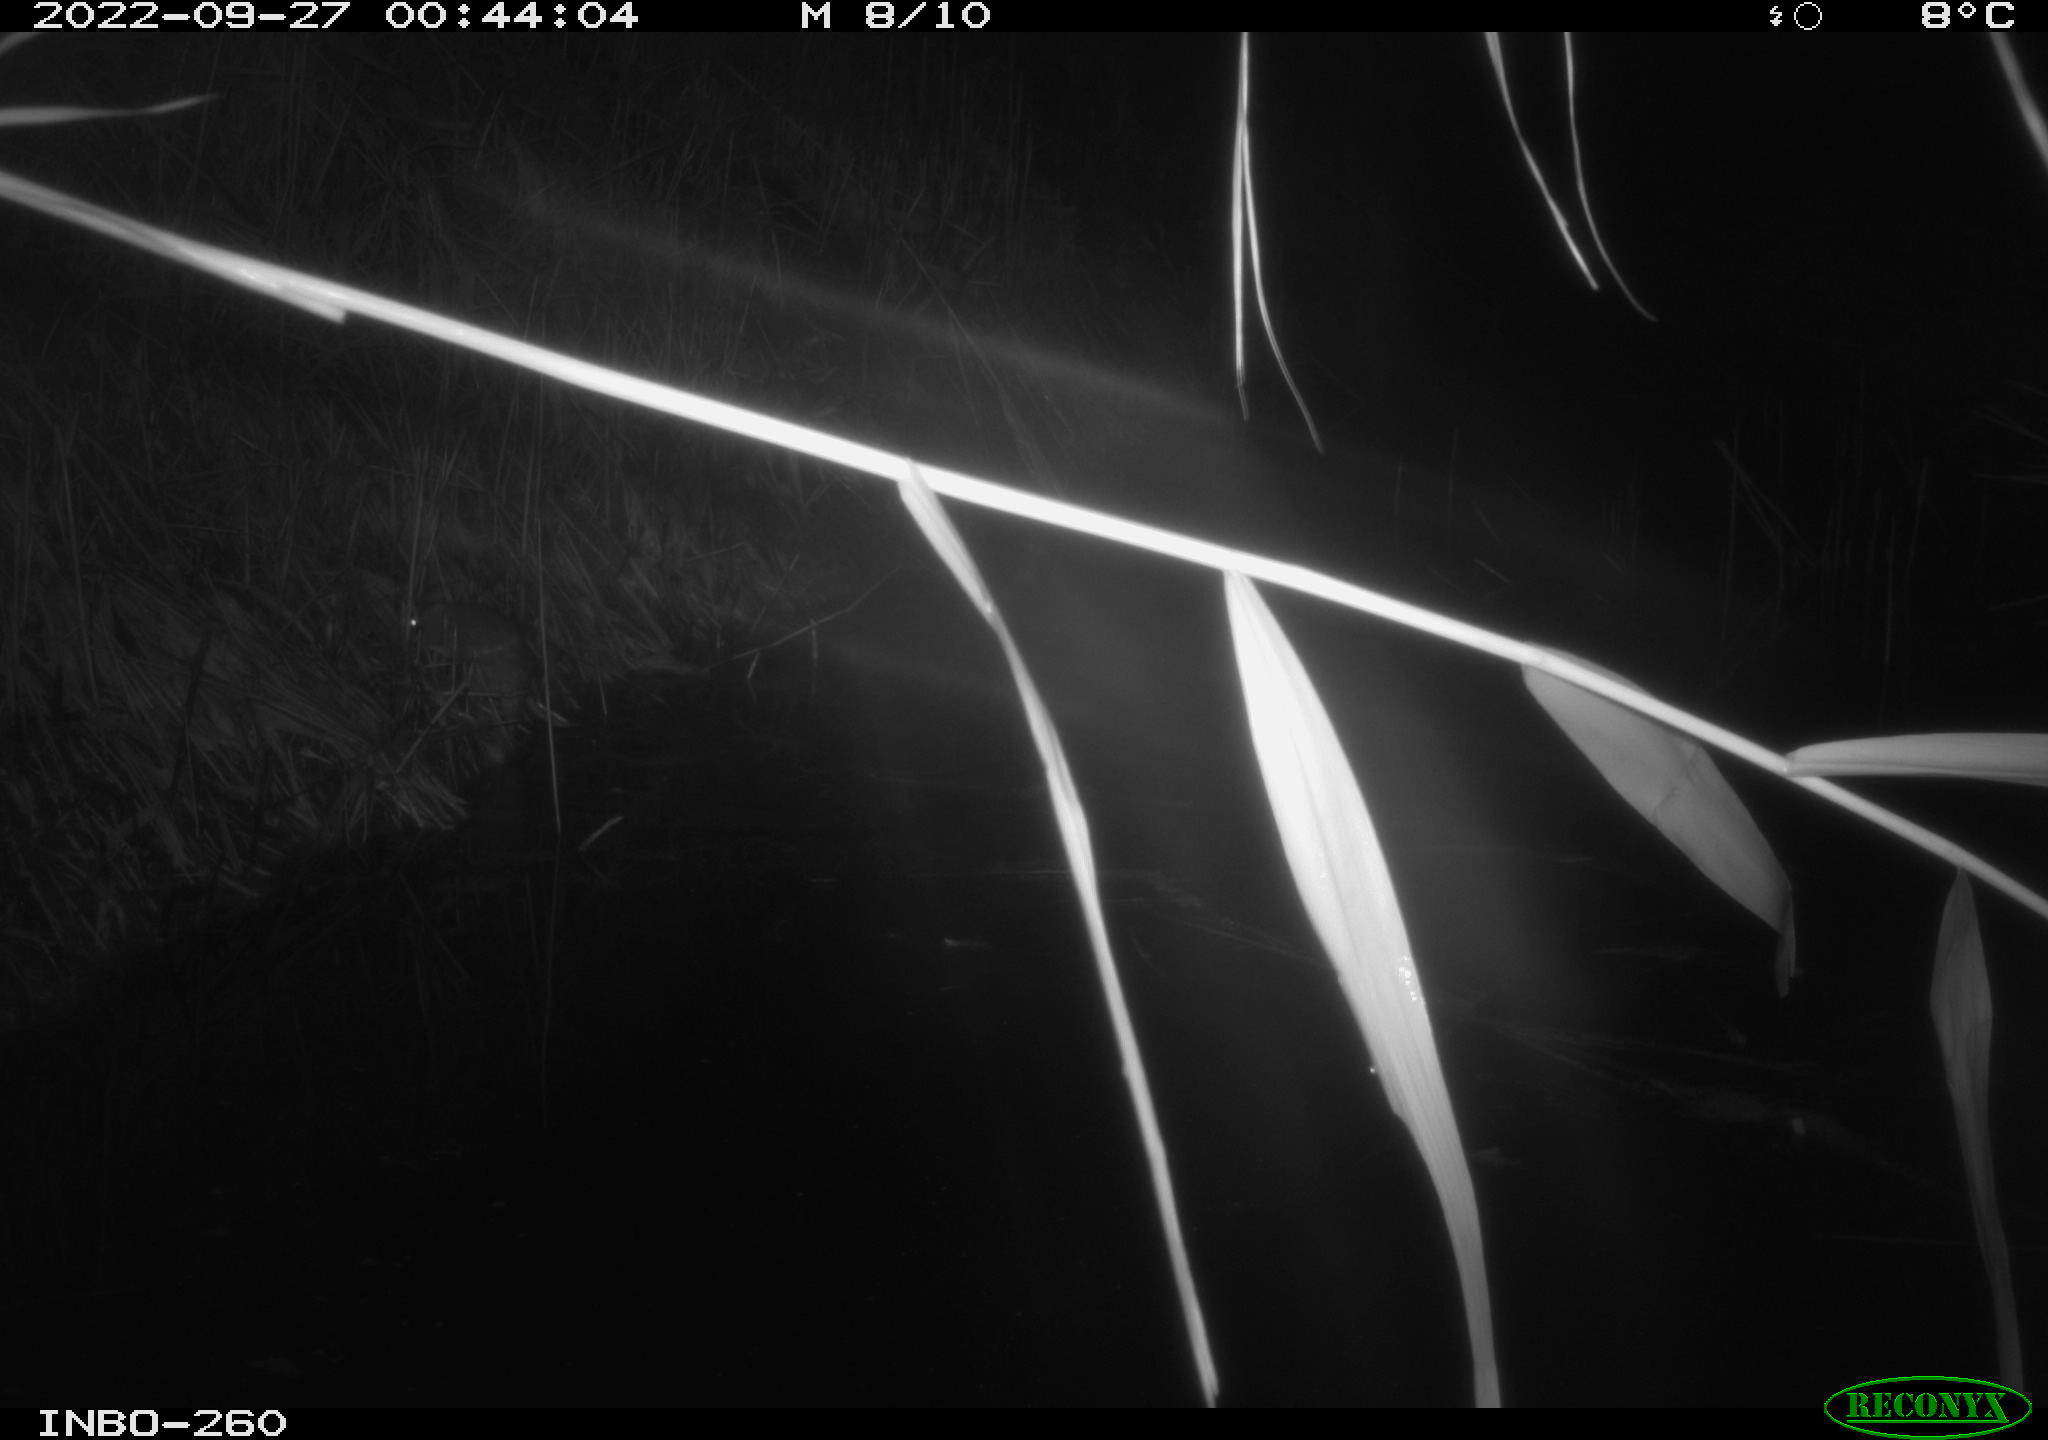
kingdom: Animalia
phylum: Chordata
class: Mammalia
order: Rodentia
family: Muridae
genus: Rattus
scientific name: Rattus norvegicus
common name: Brown rat
